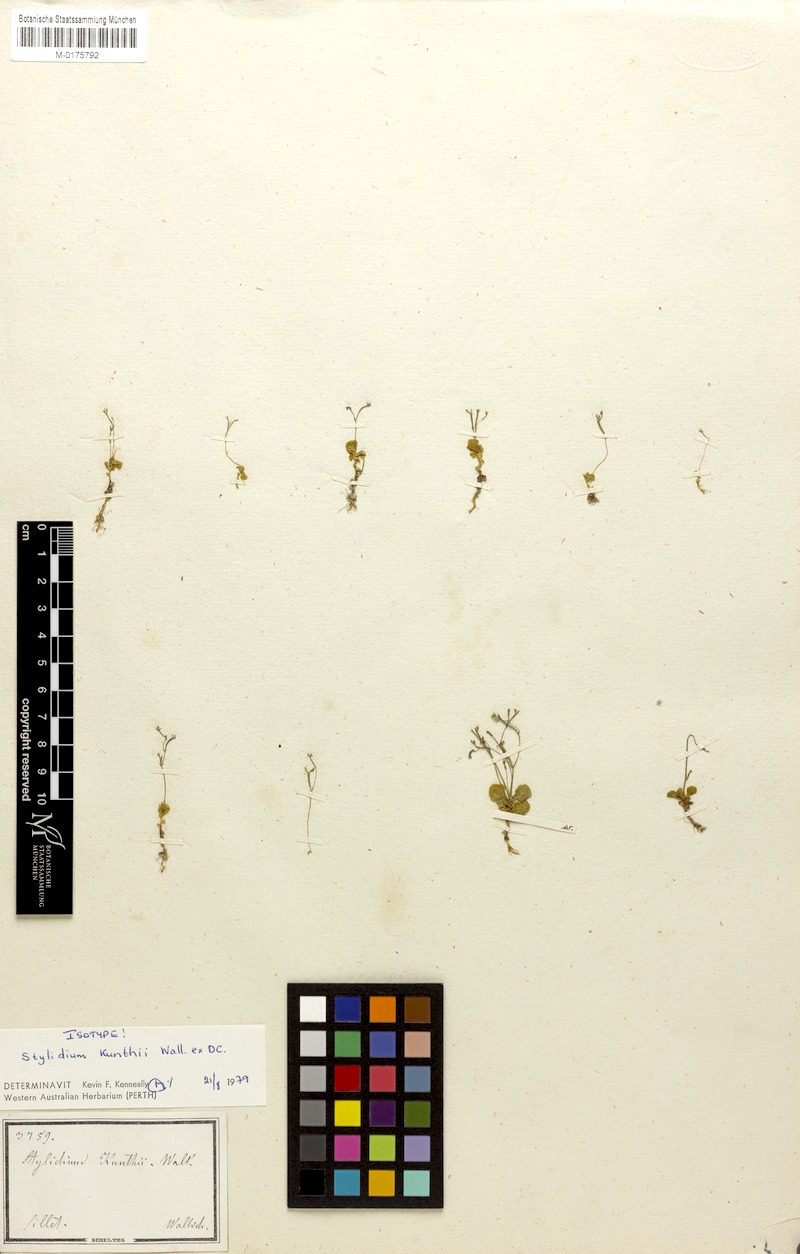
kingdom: Plantae
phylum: Tracheophyta
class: Magnoliopsida
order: Asterales
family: Stylidiaceae
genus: Stylidium
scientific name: Stylidium uliginosum
